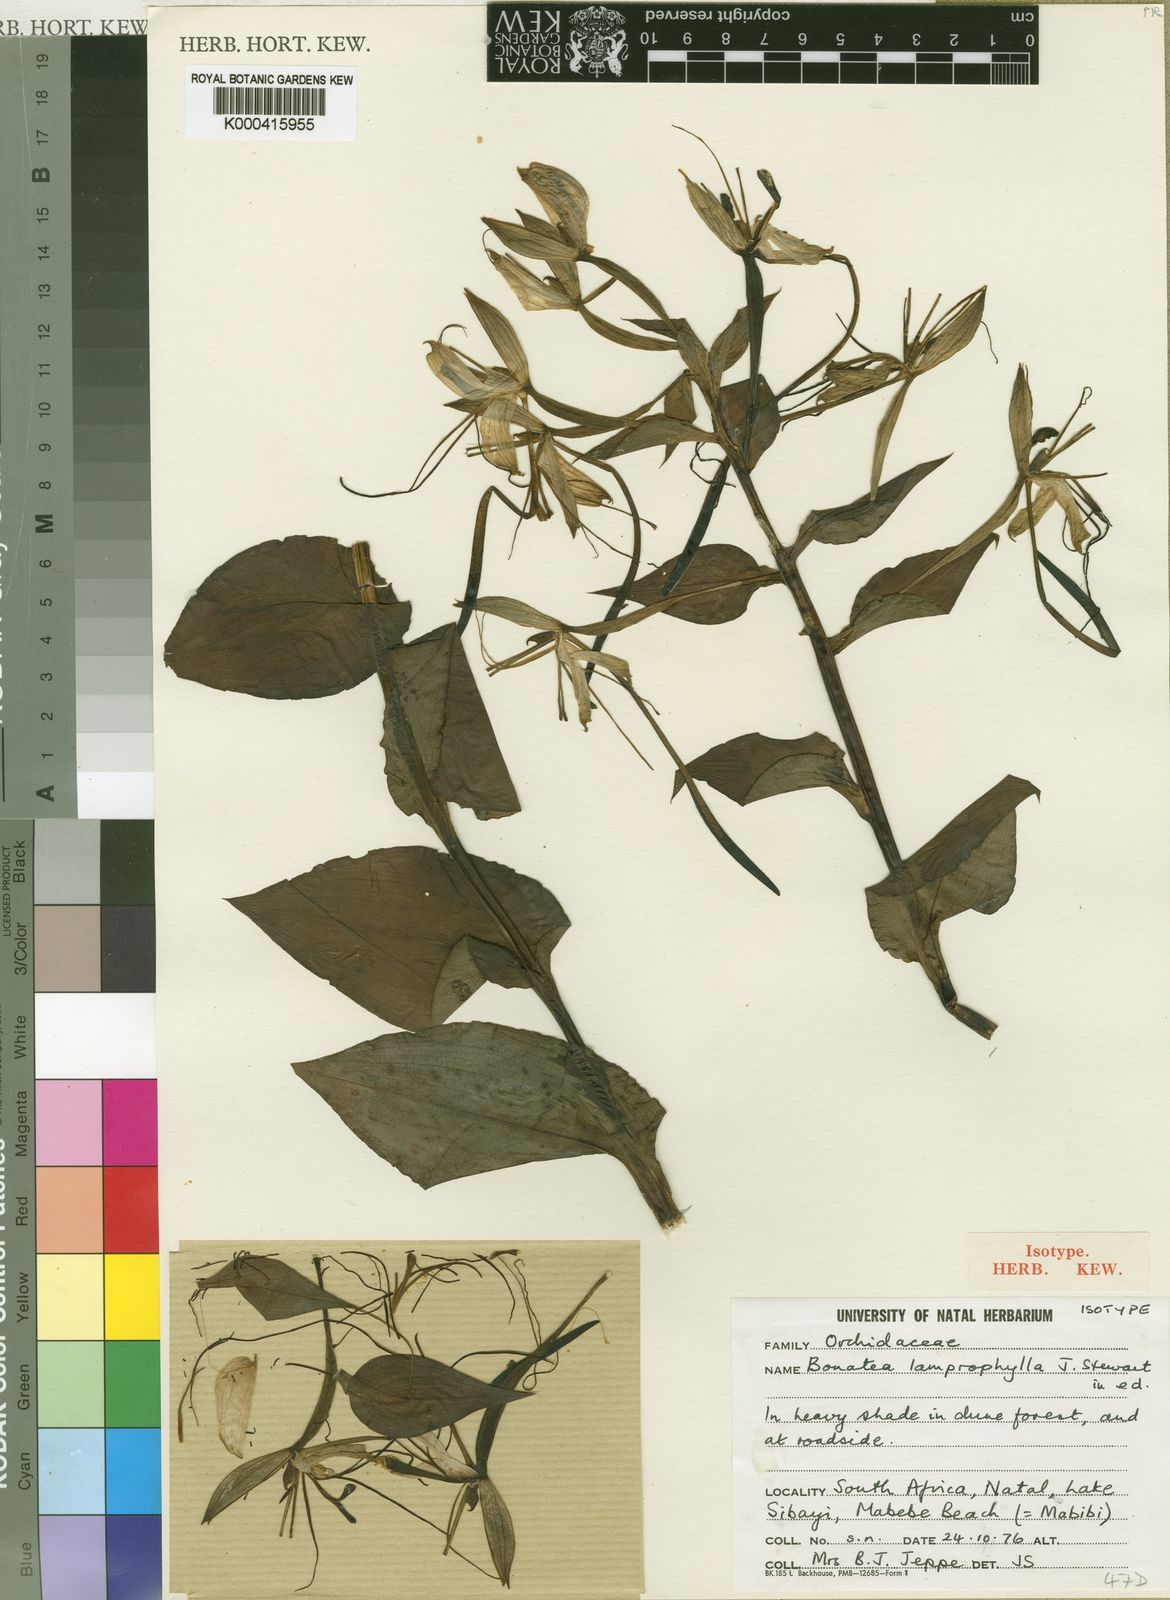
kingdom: Plantae
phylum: Tracheophyta
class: Liliopsida
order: Asparagales
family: Orchidaceae
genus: Bonatea
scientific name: Bonatea lamprophylla
